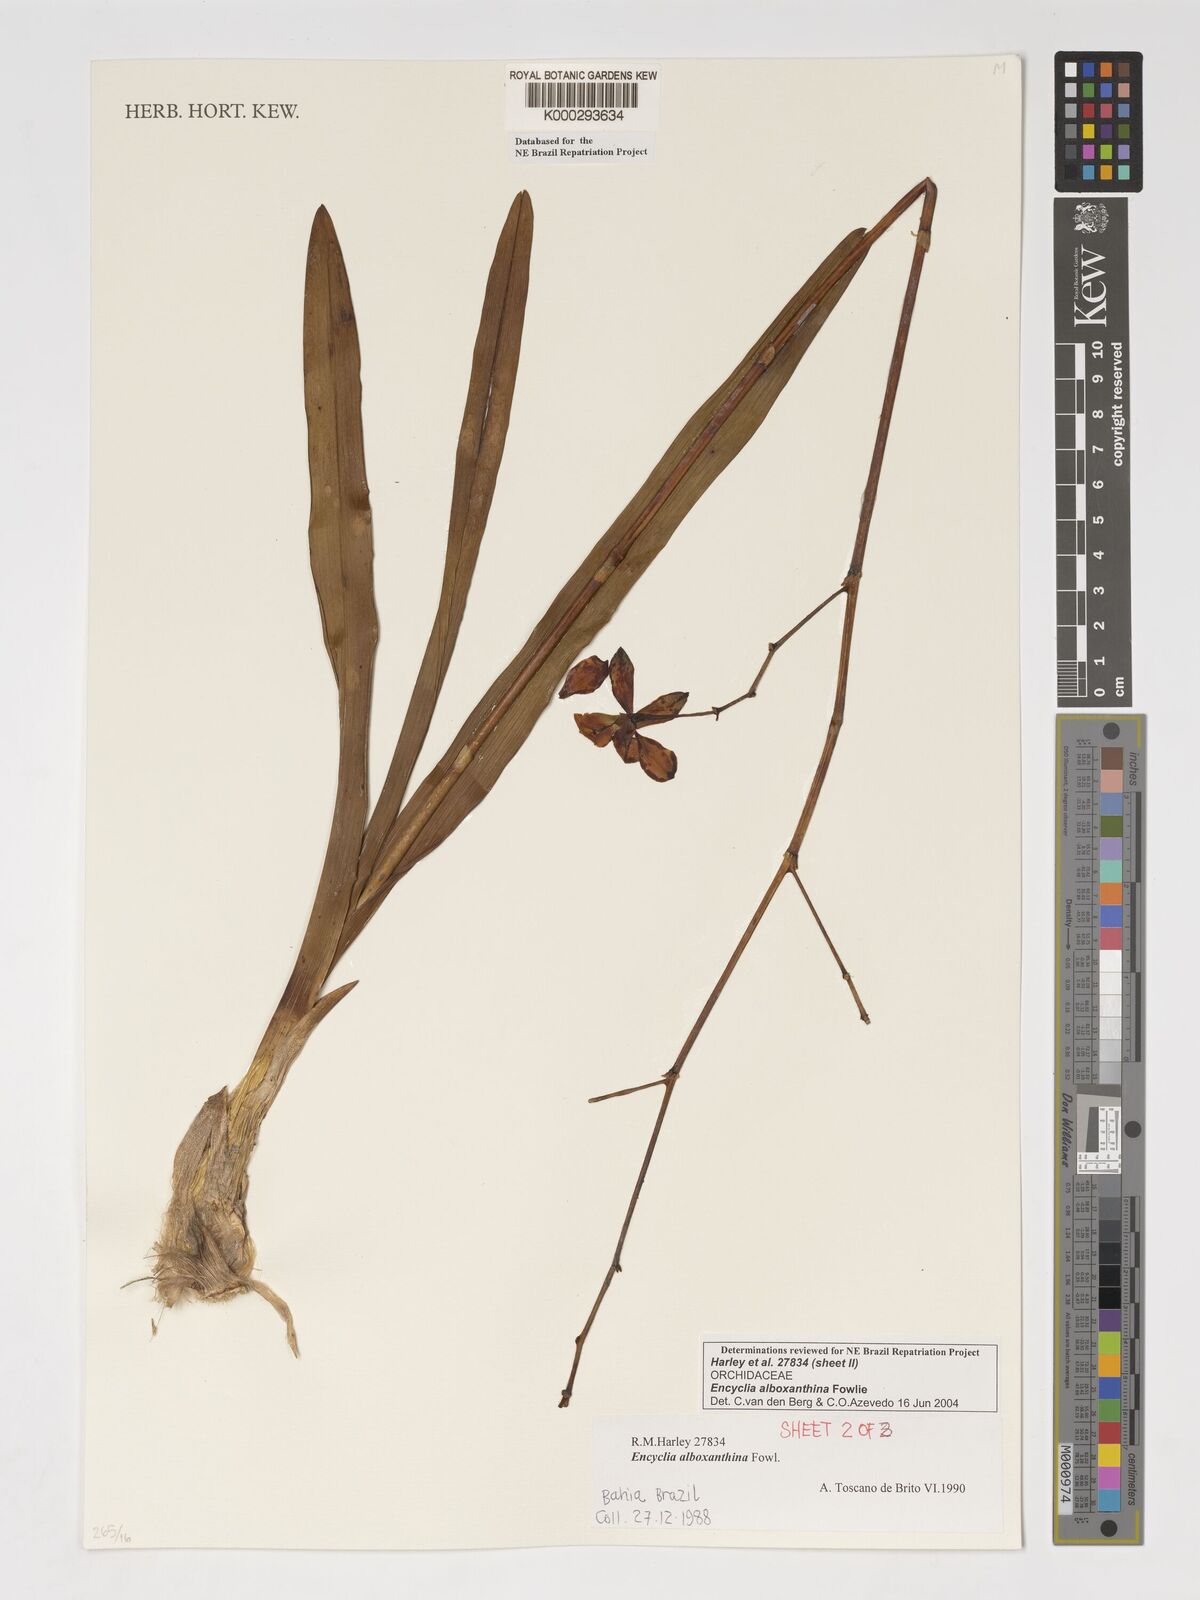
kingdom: Plantae
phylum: Tracheophyta
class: Liliopsida
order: Asparagales
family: Orchidaceae
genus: Encyclia
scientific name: Encyclia alboxanthina
